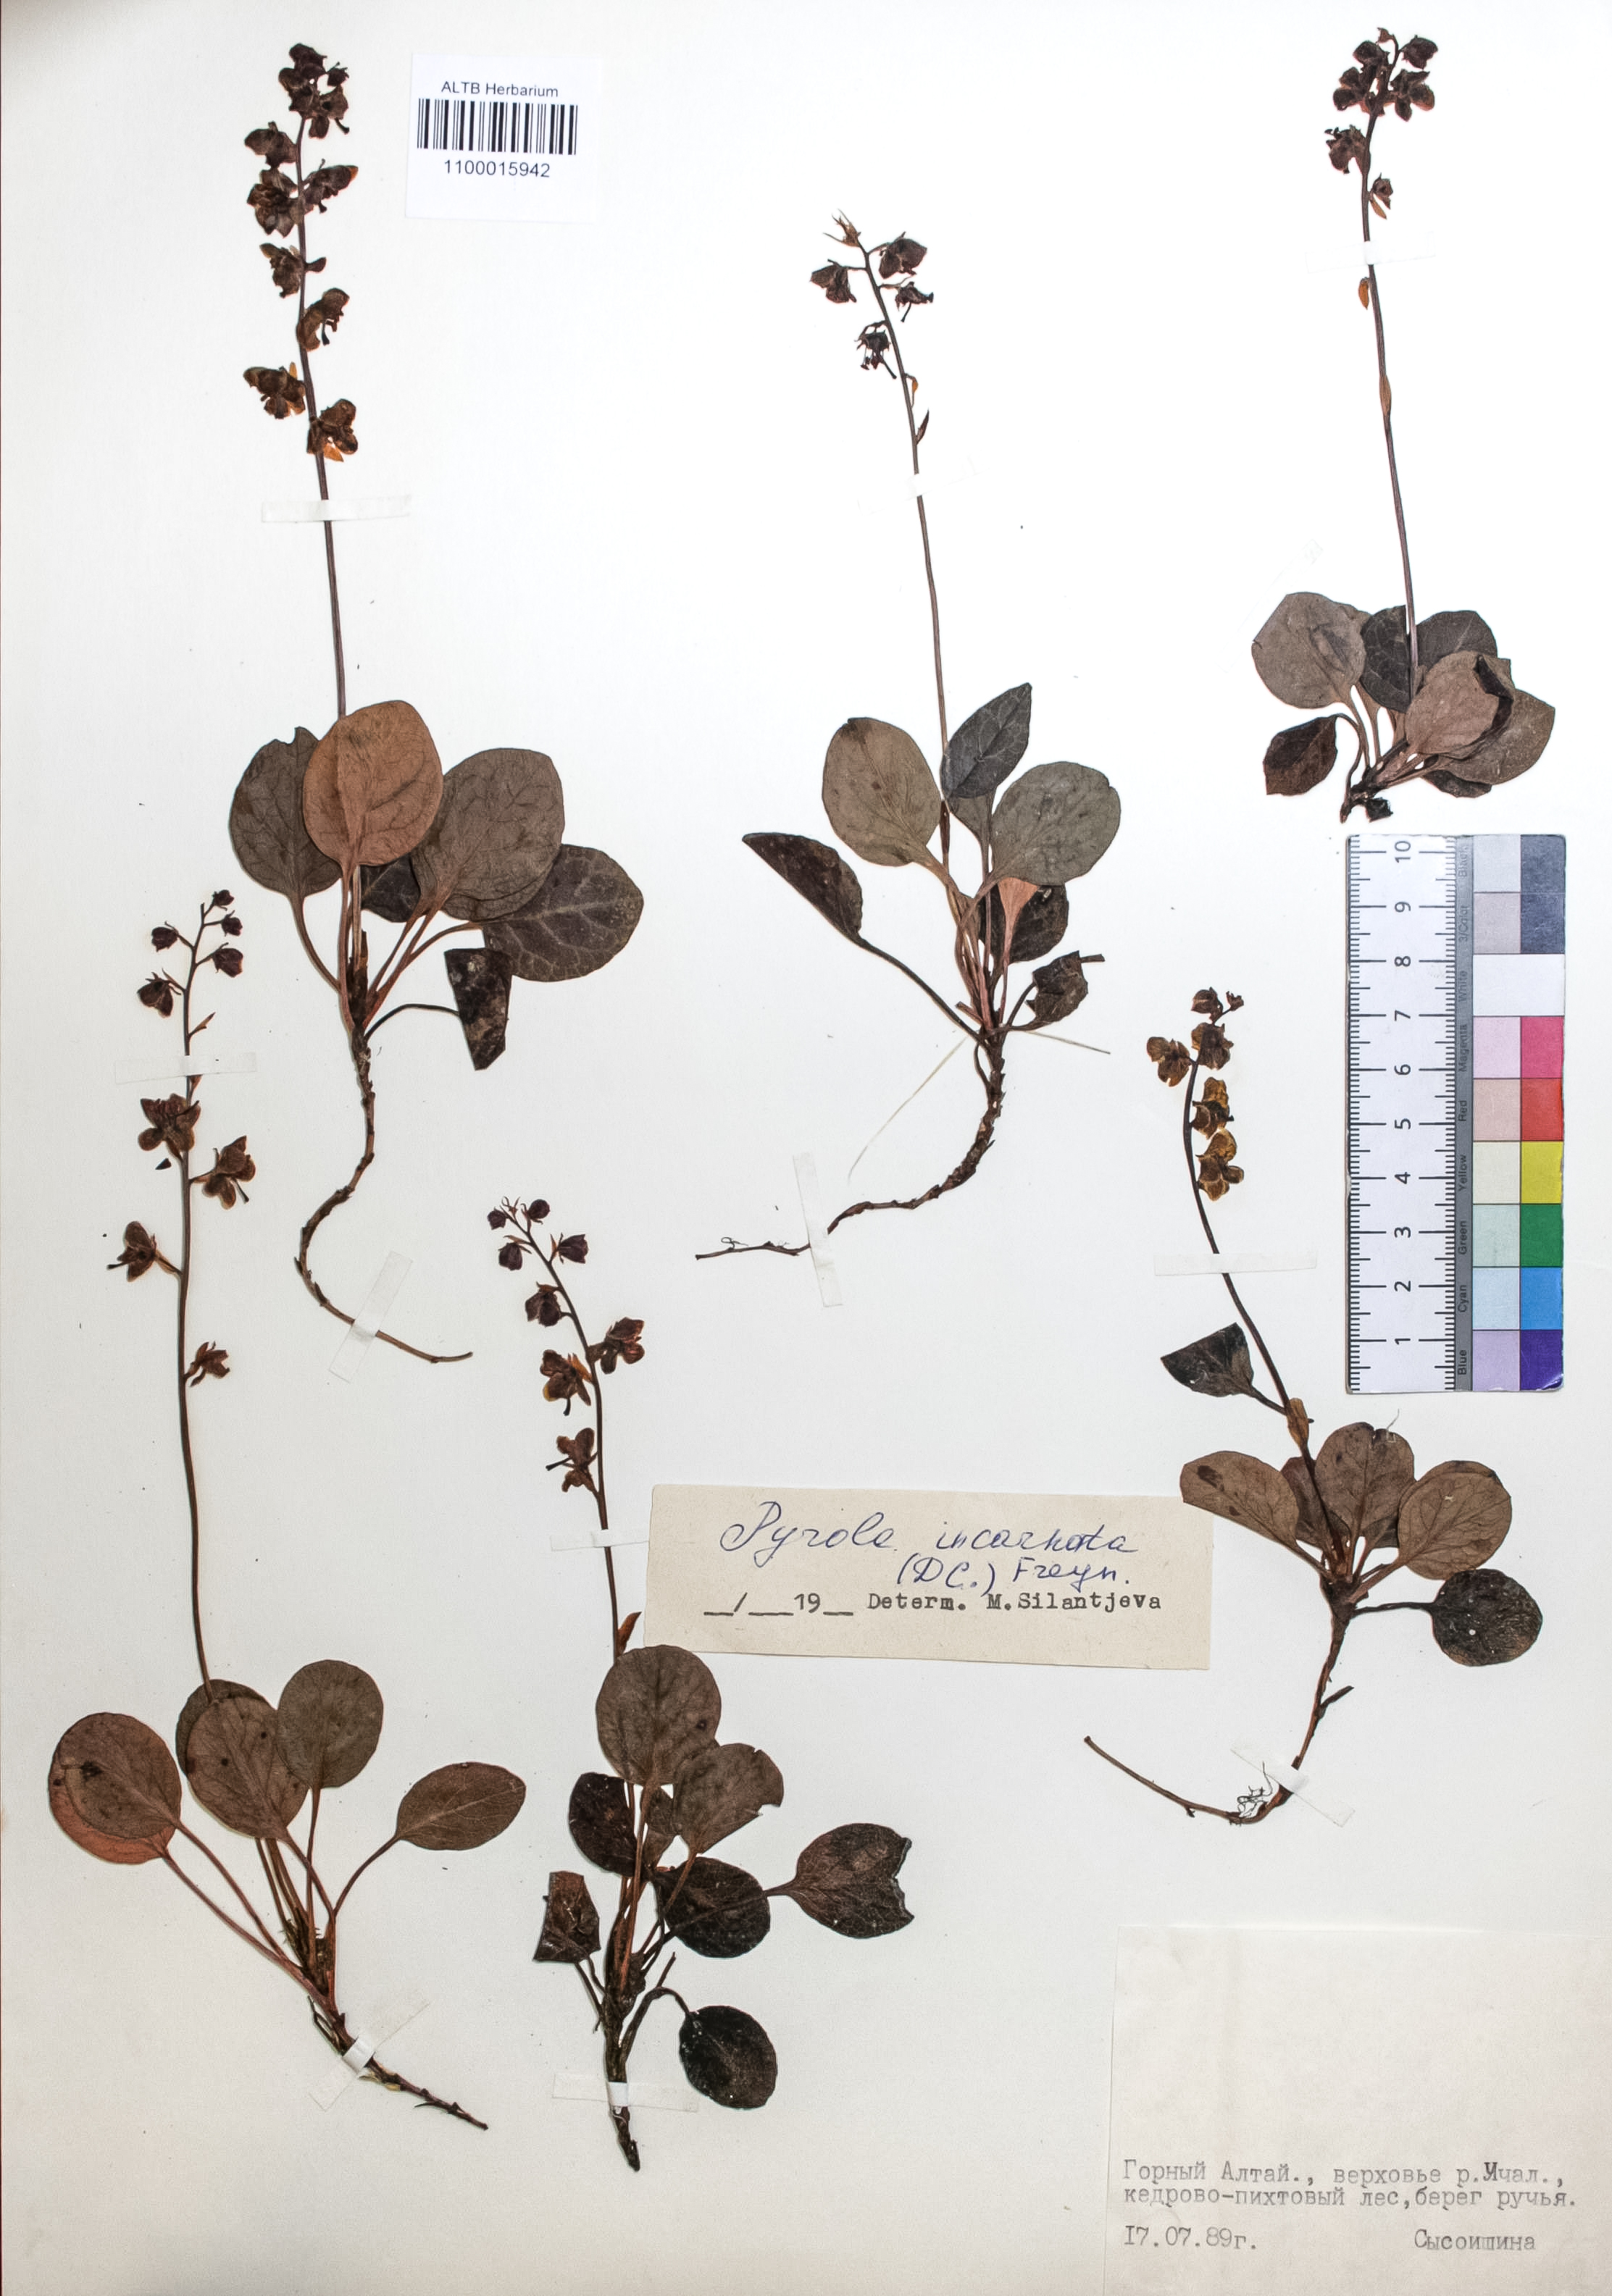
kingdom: Plantae
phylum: Tracheophyta
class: Magnoliopsida
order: Ericales
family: Ericaceae
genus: Pyrola
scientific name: Pyrola asarifolia
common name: Bog wintergreen
